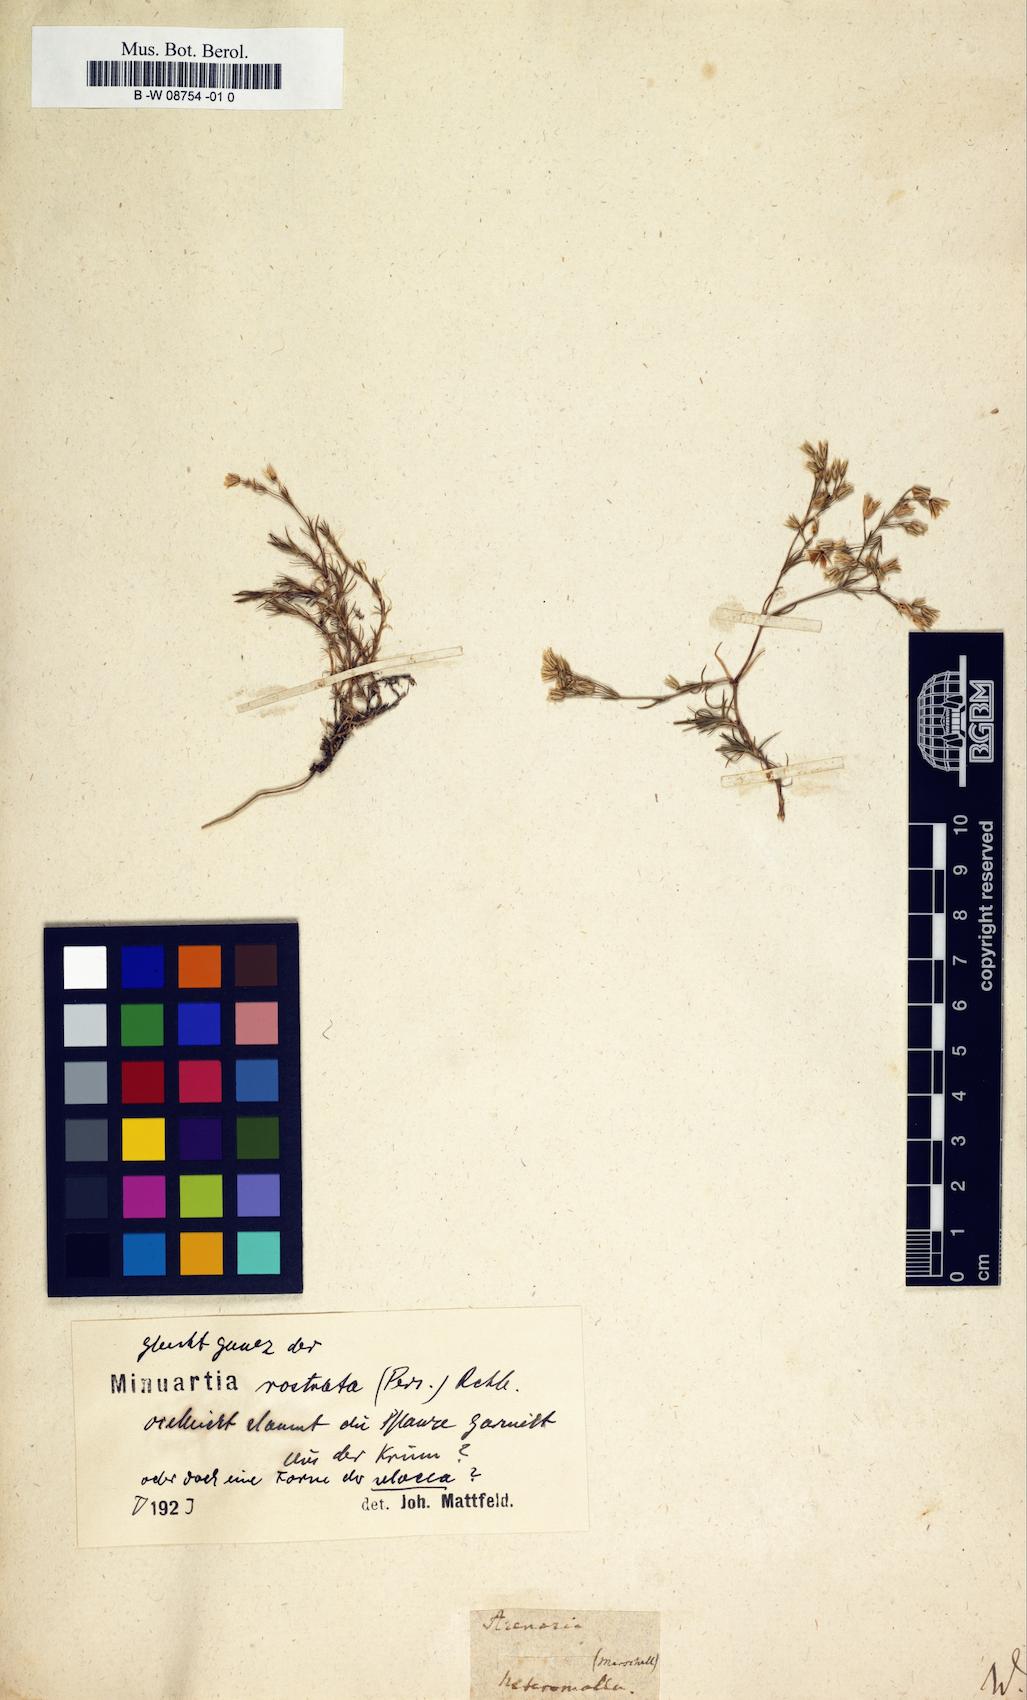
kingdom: Plantae
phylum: Tracheophyta
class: Magnoliopsida
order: Caryophyllales
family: Caryophyllaceae
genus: Arenaria
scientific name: Arenaria
